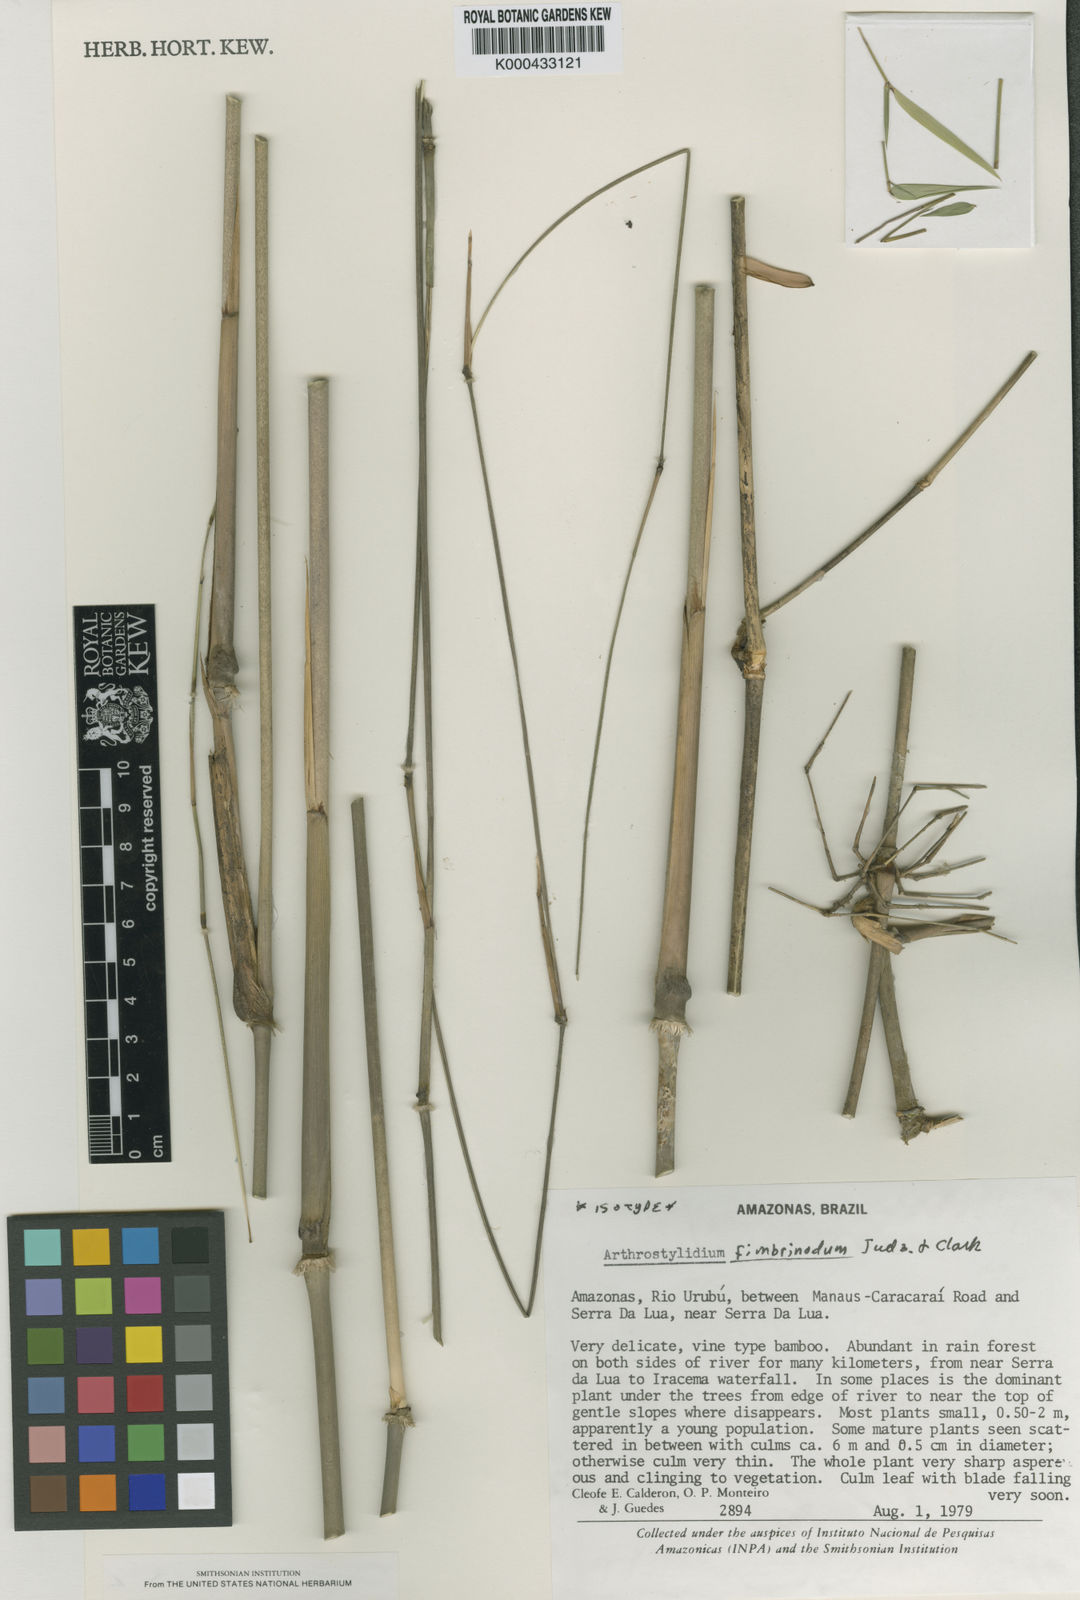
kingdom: Plantae
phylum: Tracheophyta
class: Liliopsida
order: Poales
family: Poaceae
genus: Arthrostylidium
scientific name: Arthrostylidium fimbrinodum
